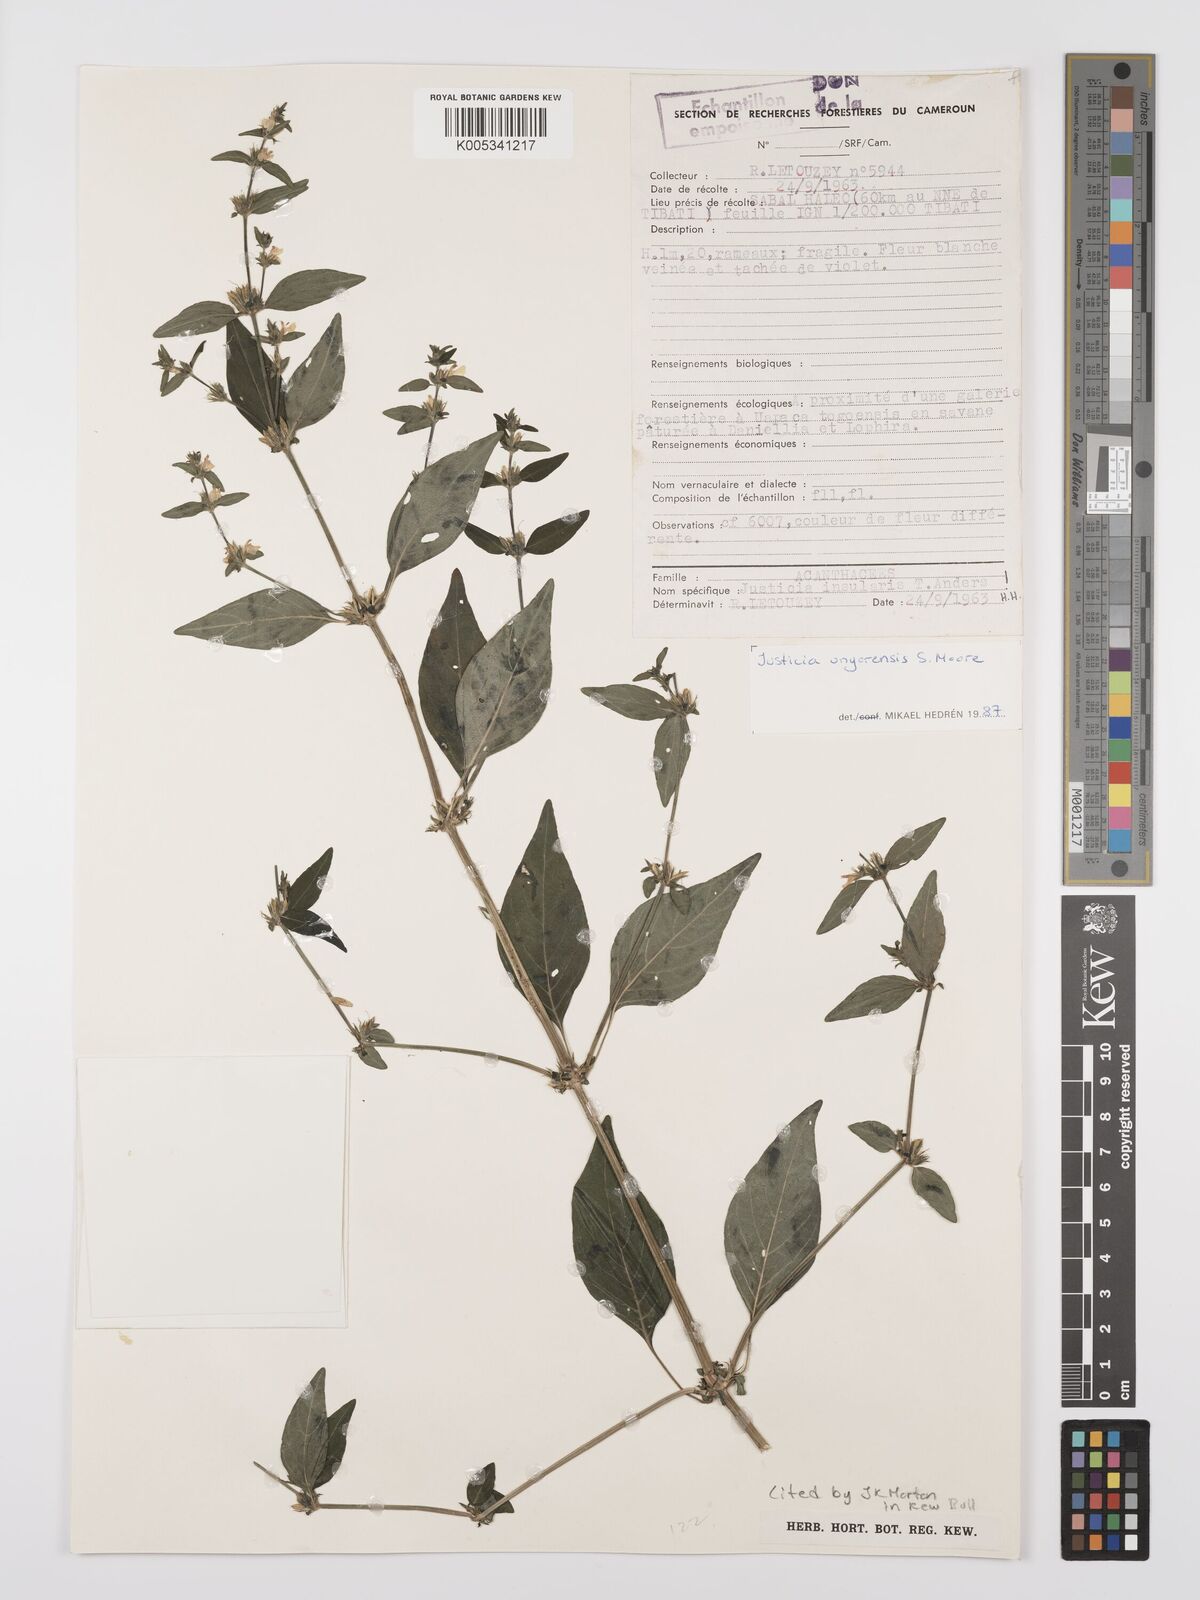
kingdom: Plantae
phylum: Tracheophyta
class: Magnoliopsida
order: Lamiales
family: Acanthaceae
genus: Justicia
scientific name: Justicia unyorensis
